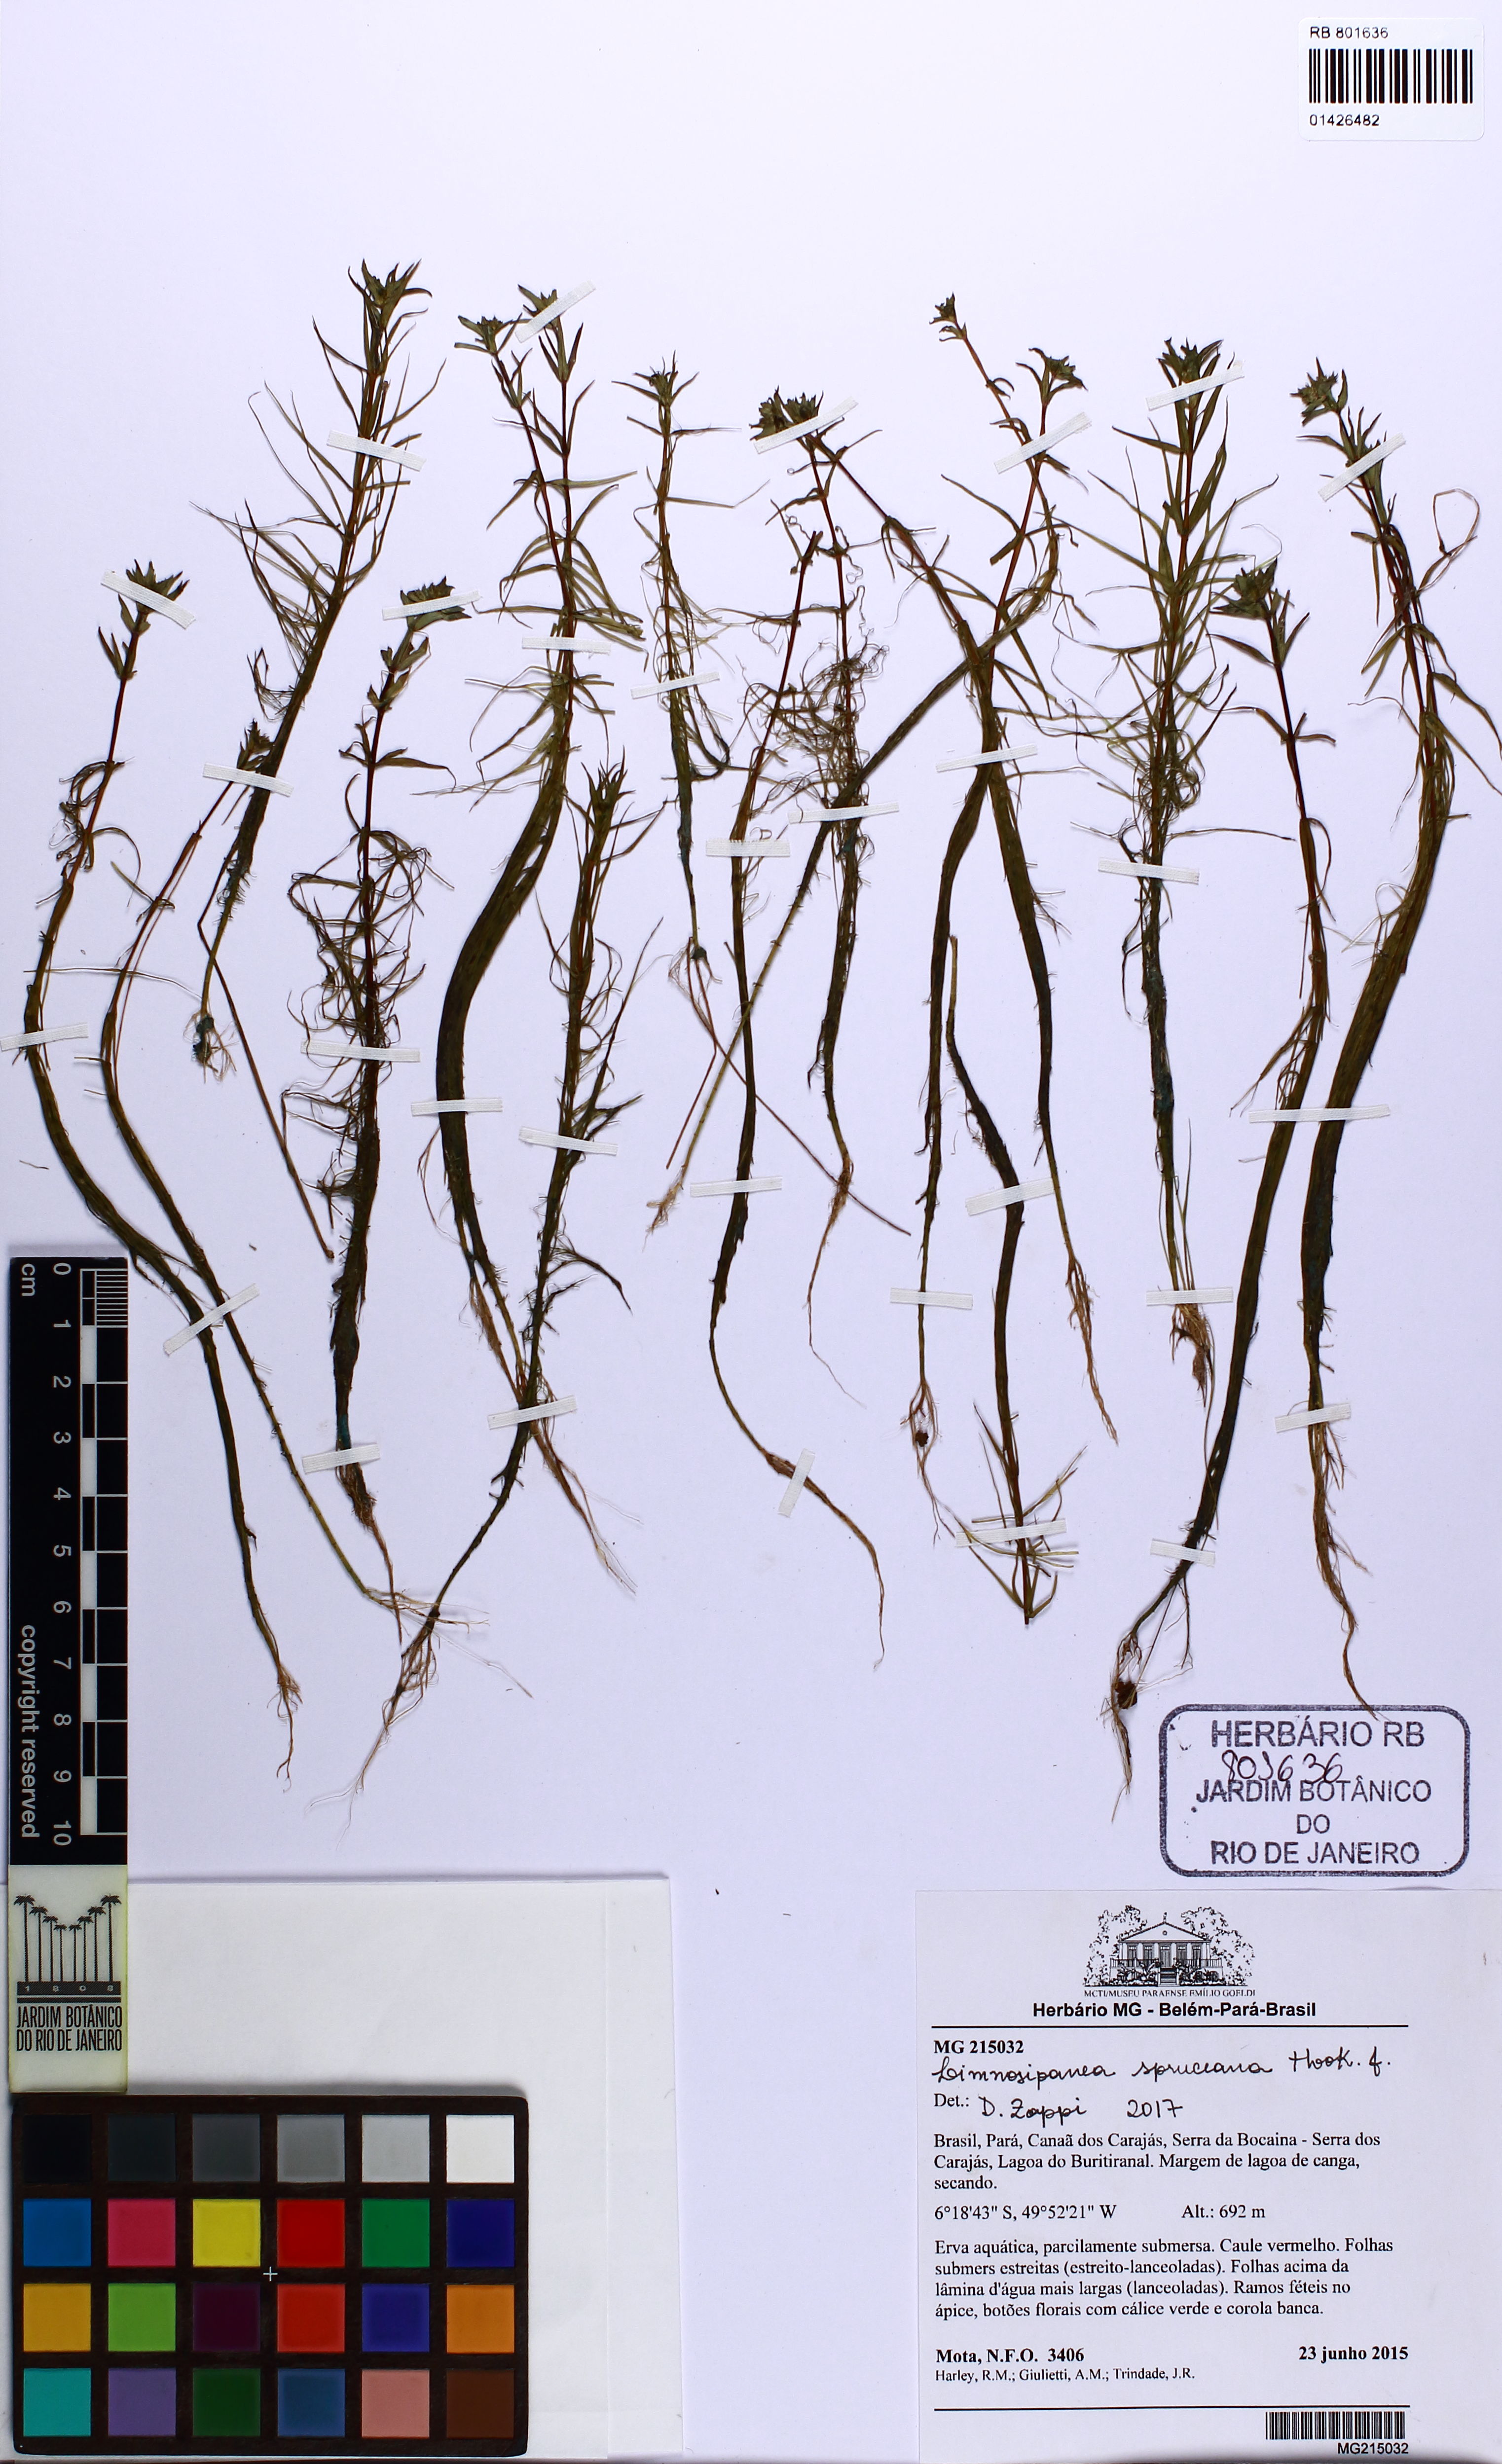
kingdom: Plantae
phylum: Tracheophyta
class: Magnoliopsida
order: Gentianales
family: Rubiaceae
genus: Limnosipanea
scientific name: Limnosipanea spruceana
